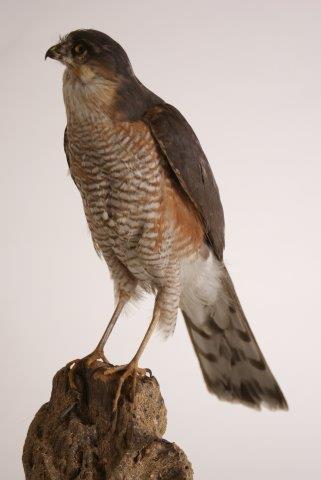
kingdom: Animalia
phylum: Chordata
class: Aves
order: Accipitriformes
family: Accipitridae
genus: Accipiter
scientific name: Accipiter nisus
